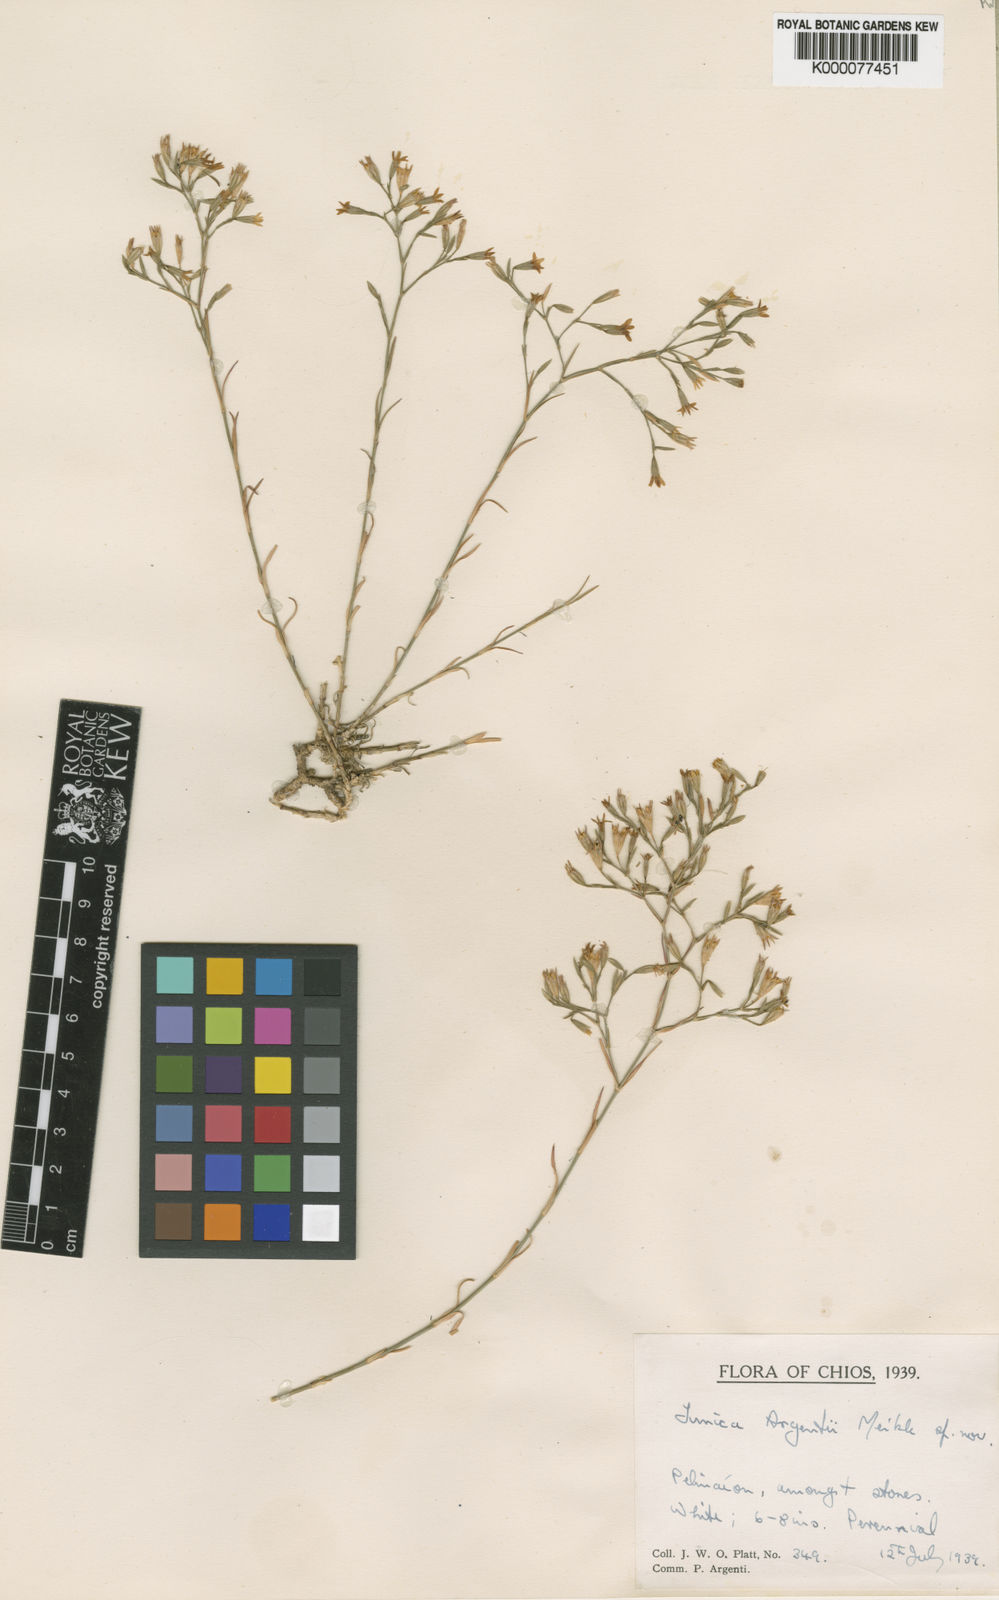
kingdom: Plantae
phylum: Tracheophyta
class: Magnoliopsida
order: Caryophyllales
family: Caryophyllaceae
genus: Dianthus
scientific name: Dianthus tunicoides
